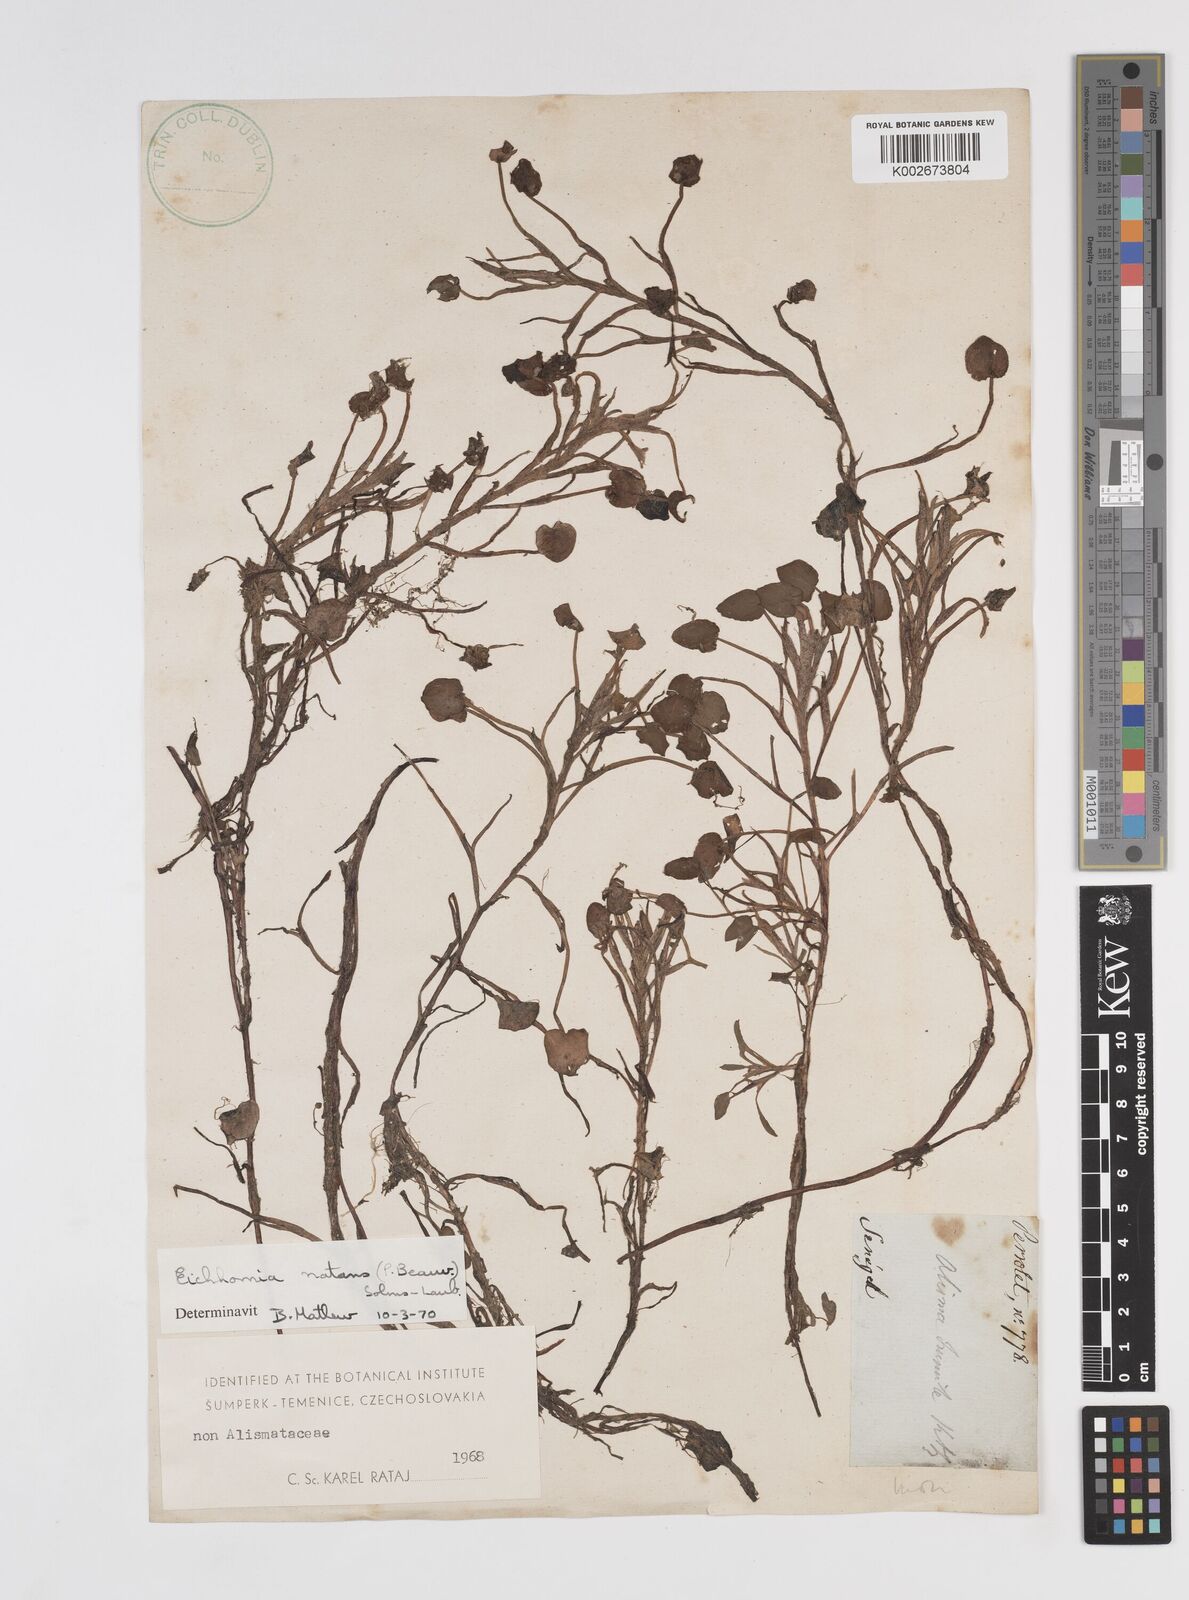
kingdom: Plantae
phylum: Tracheophyta
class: Liliopsida
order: Commelinales
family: Pontederiaceae
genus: Pontederia
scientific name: Pontederia natans
